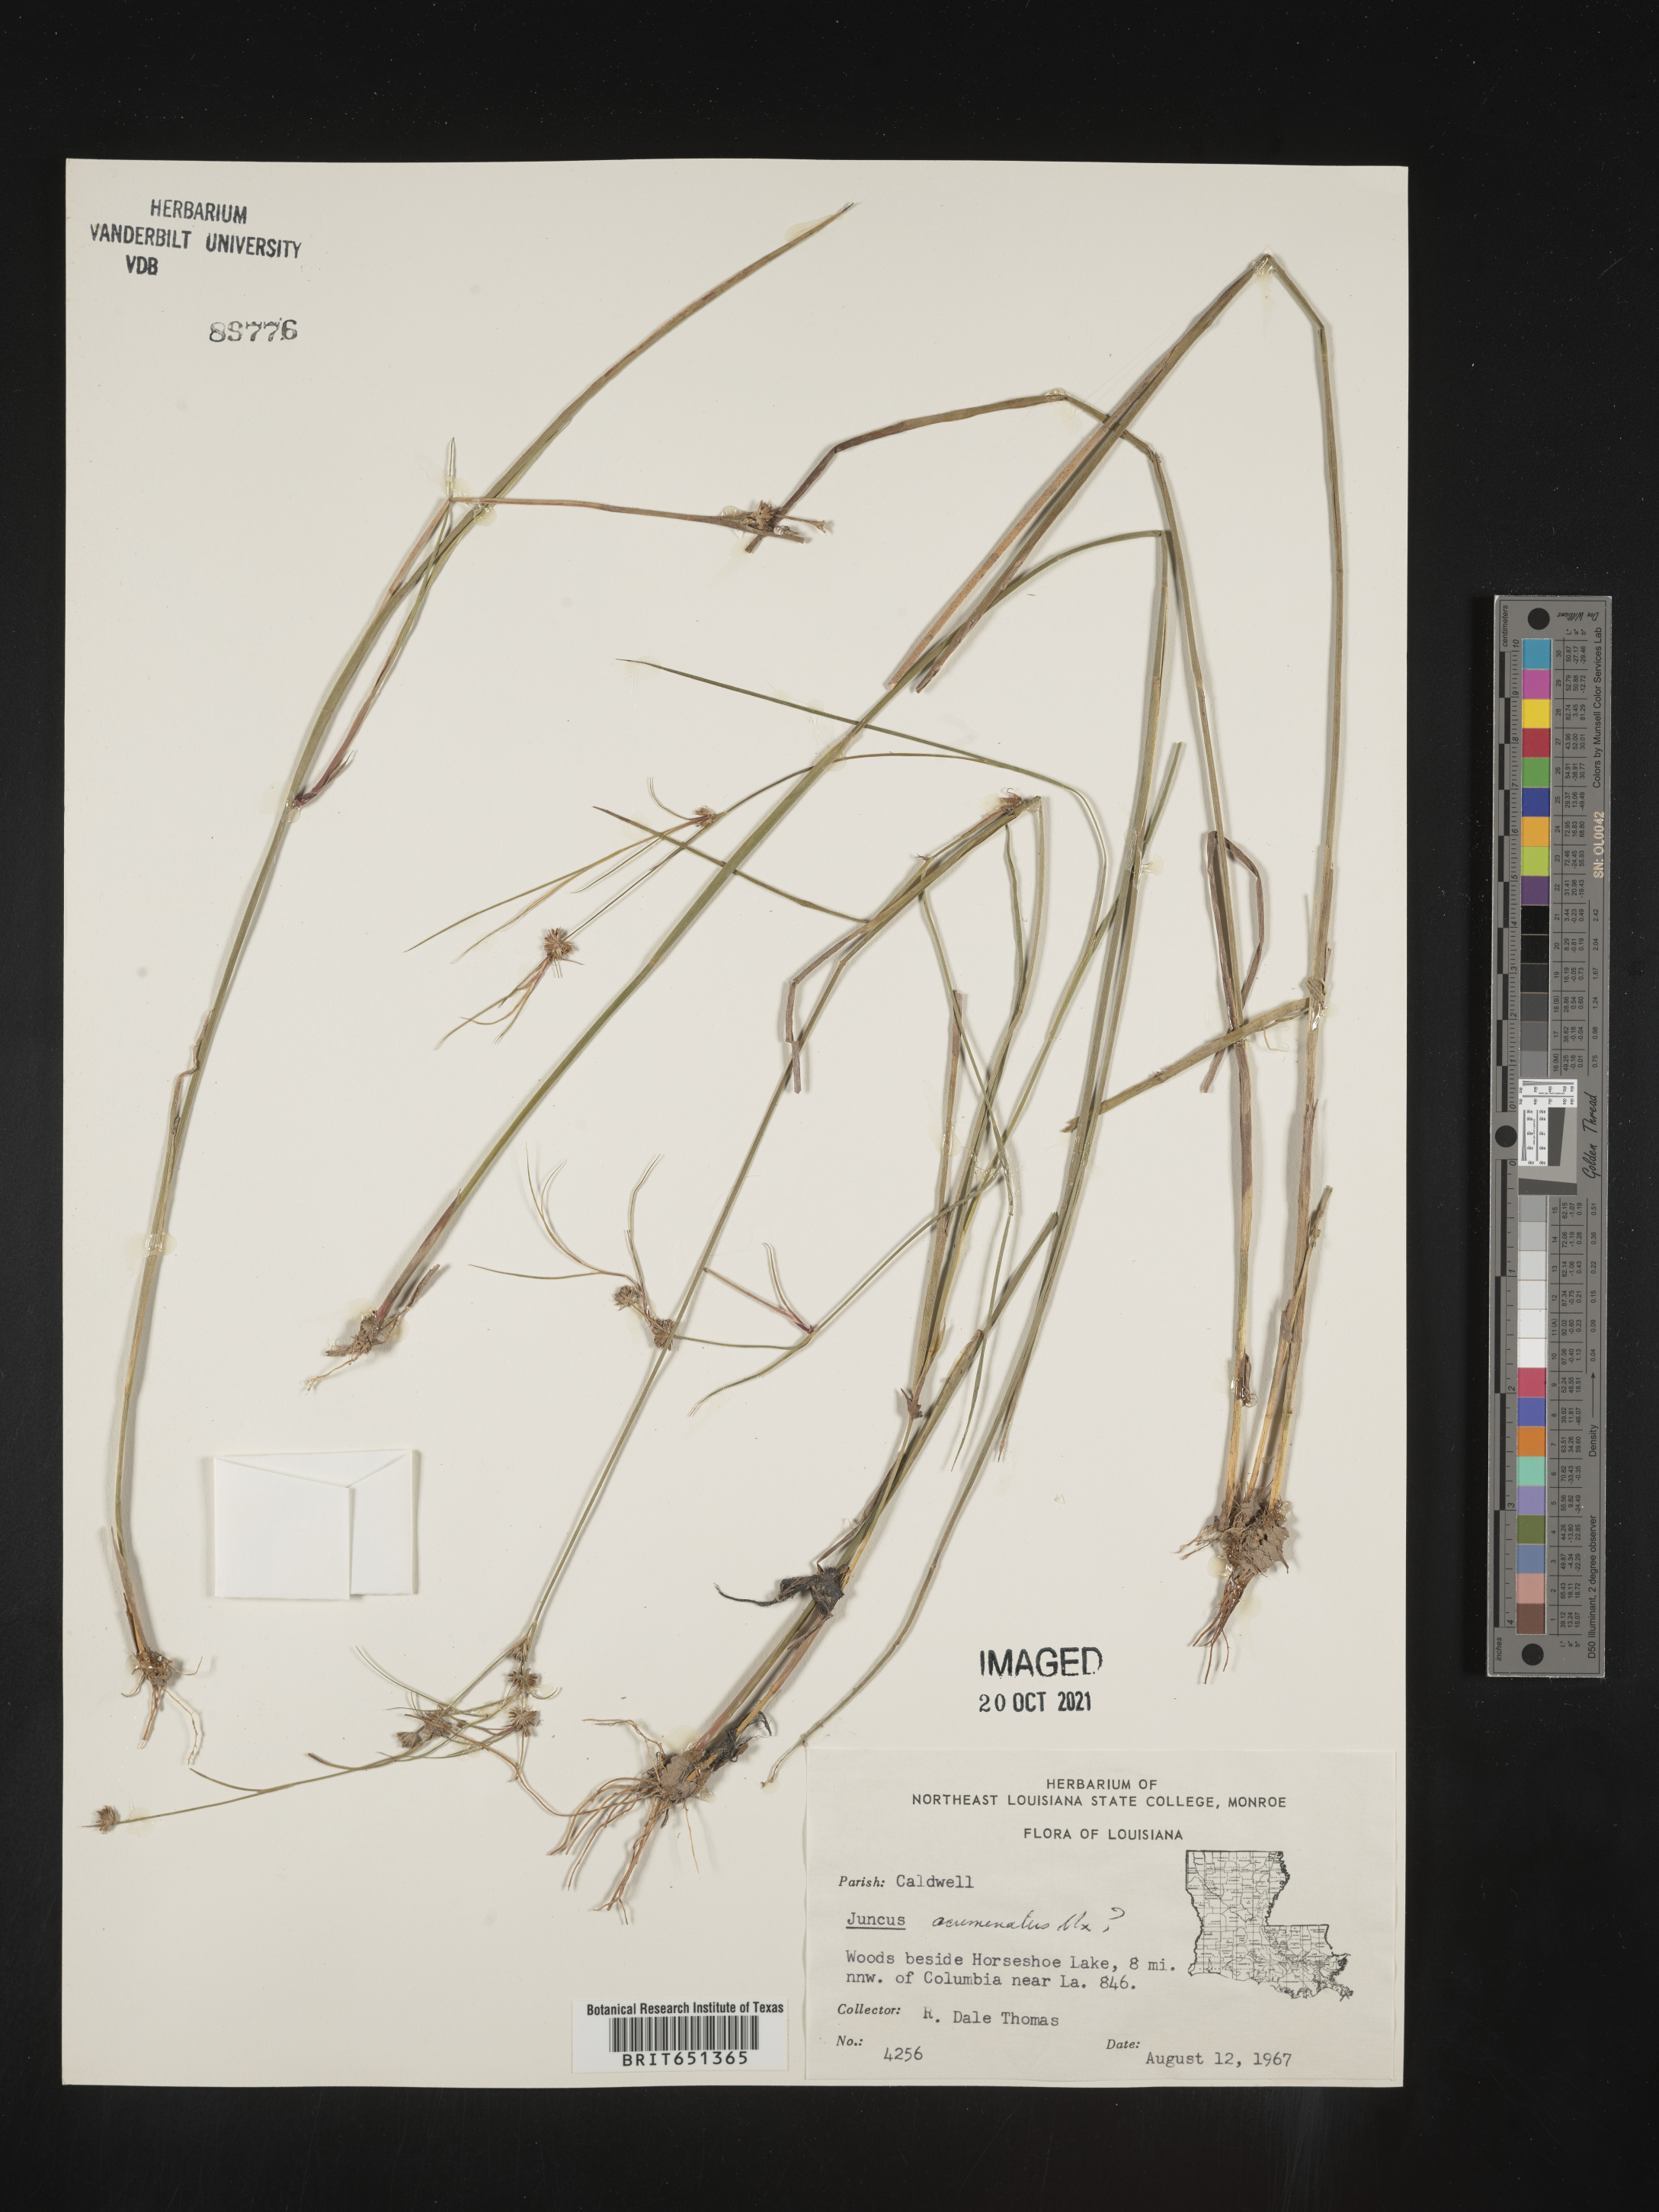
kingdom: Plantae
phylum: Tracheophyta
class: Liliopsida
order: Poales
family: Juncaceae
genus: Juncus
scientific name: Juncus acuminatus
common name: Knotty-leaved rush
